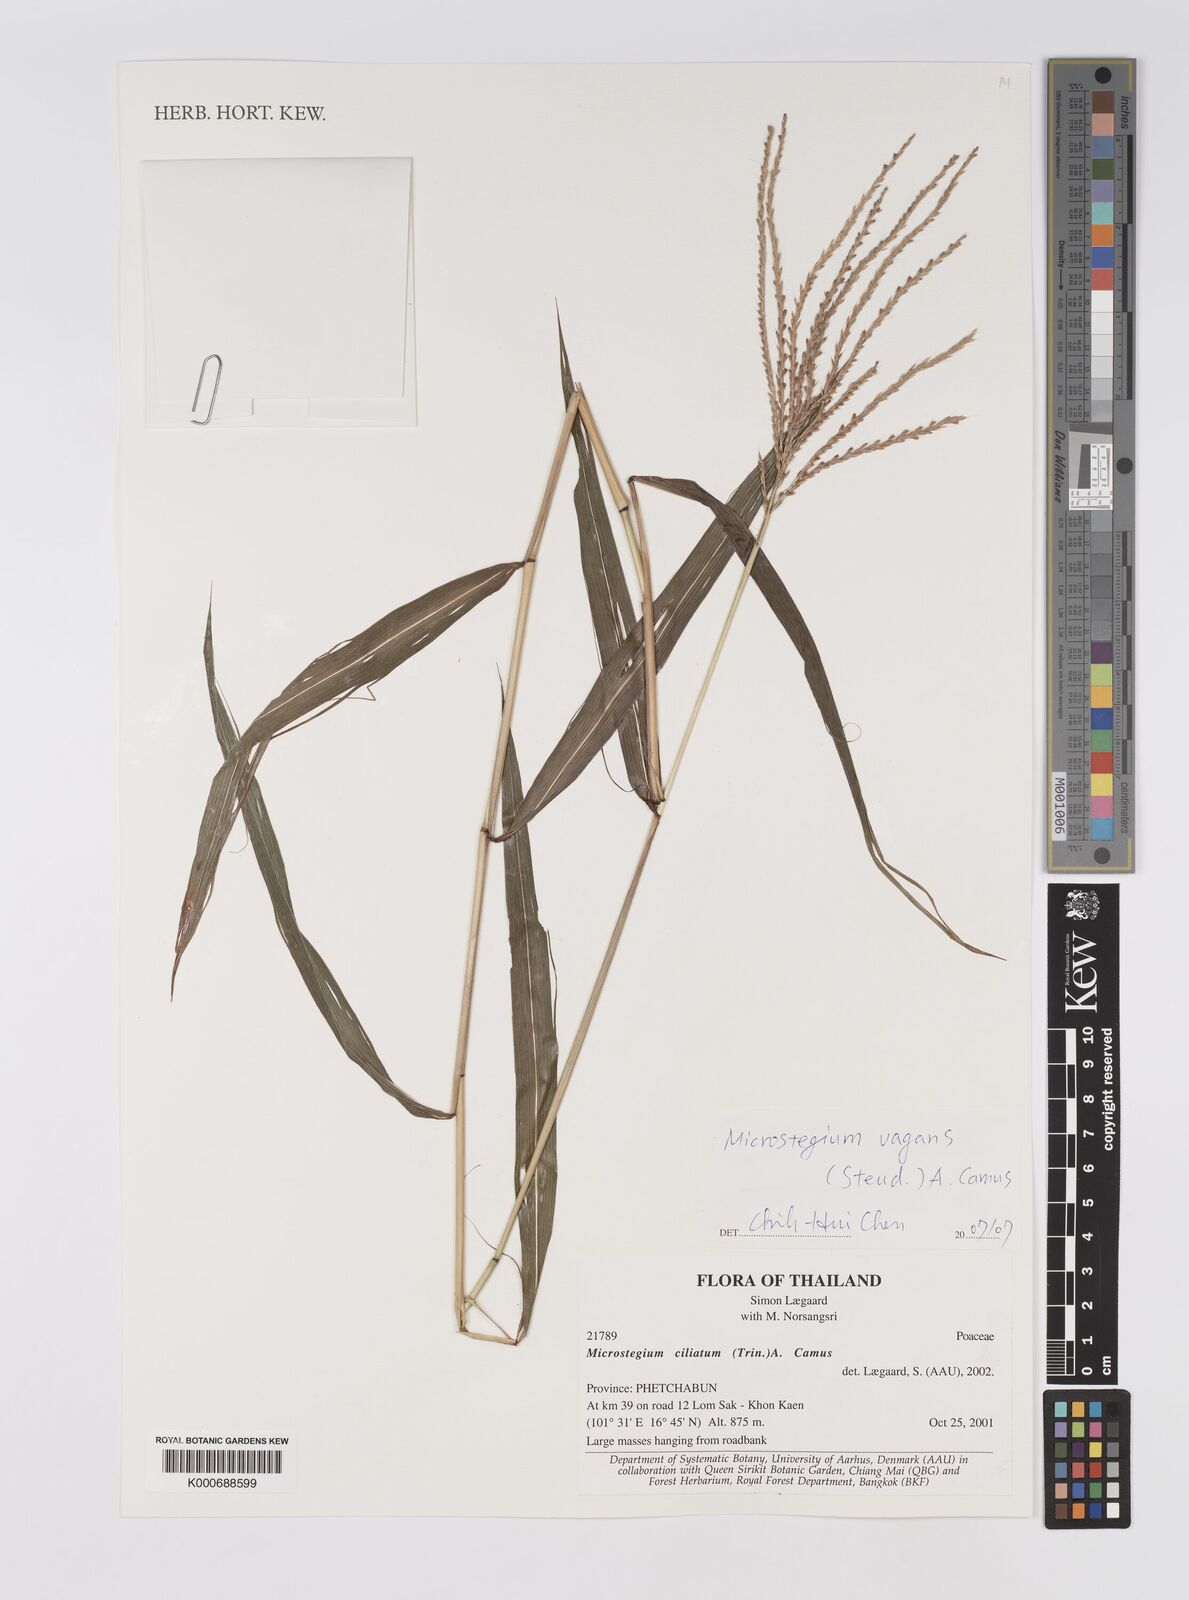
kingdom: Plantae
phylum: Tracheophyta
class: Liliopsida
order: Poales
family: Poaceae
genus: Microstegium
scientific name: Microstegium fasciculatum
